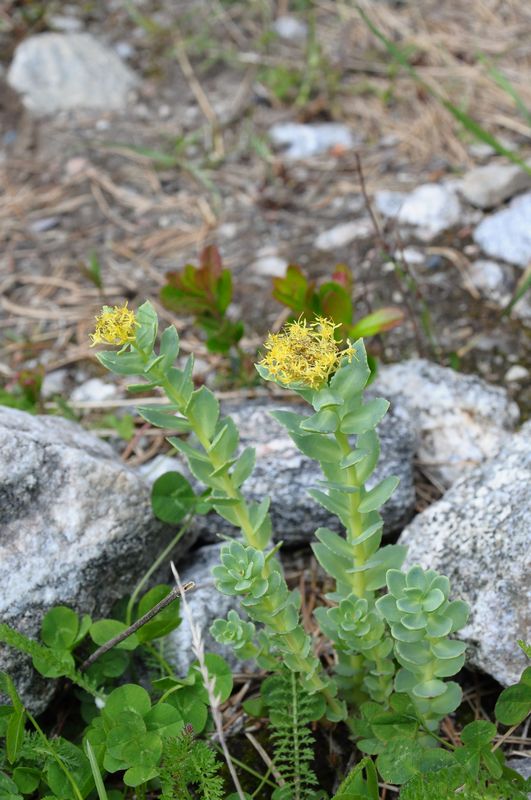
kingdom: Plantae
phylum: Tracheophyta
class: Magnoliopsida
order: Saxifragales
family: Crassulaceae
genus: Rhodiola
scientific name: Rhodiola rosea
